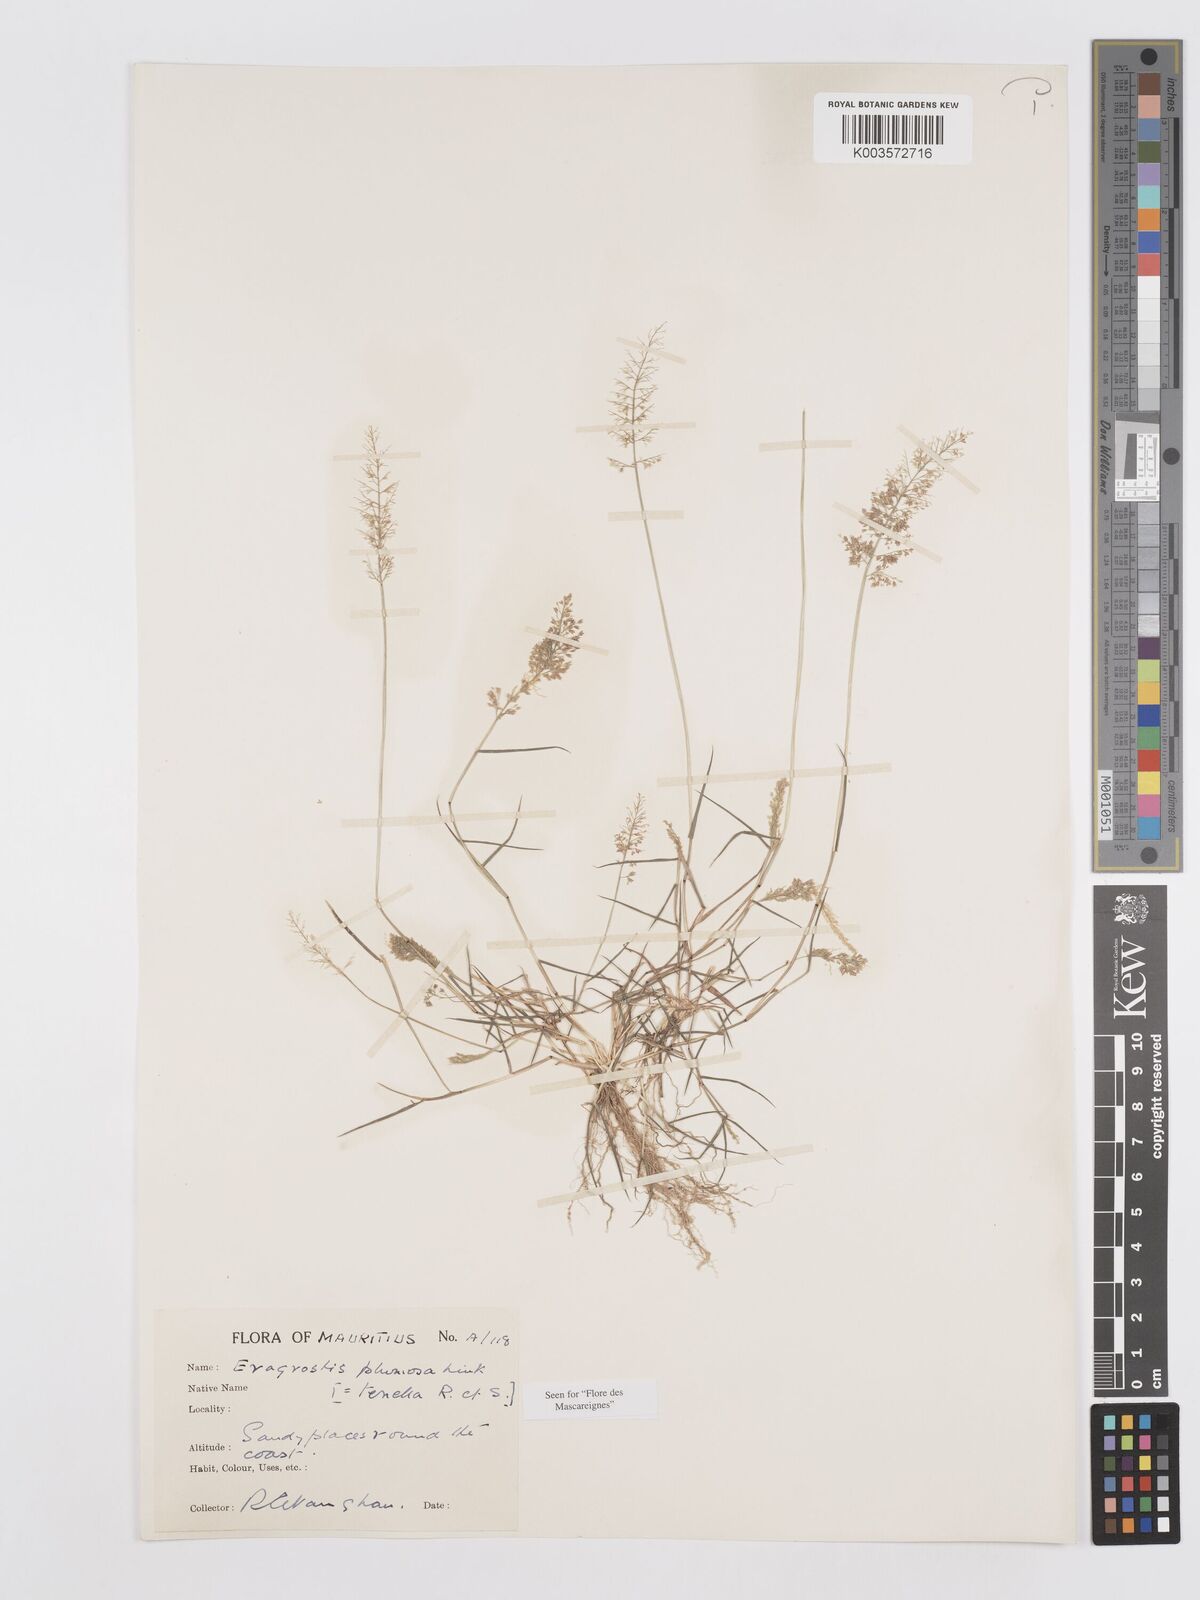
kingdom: Plantae
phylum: Tracheophyta
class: Liliopsida
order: Poales
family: Poaceae
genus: Eragrostis
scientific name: Eragrostis tenella
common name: Japanese lovegrass
